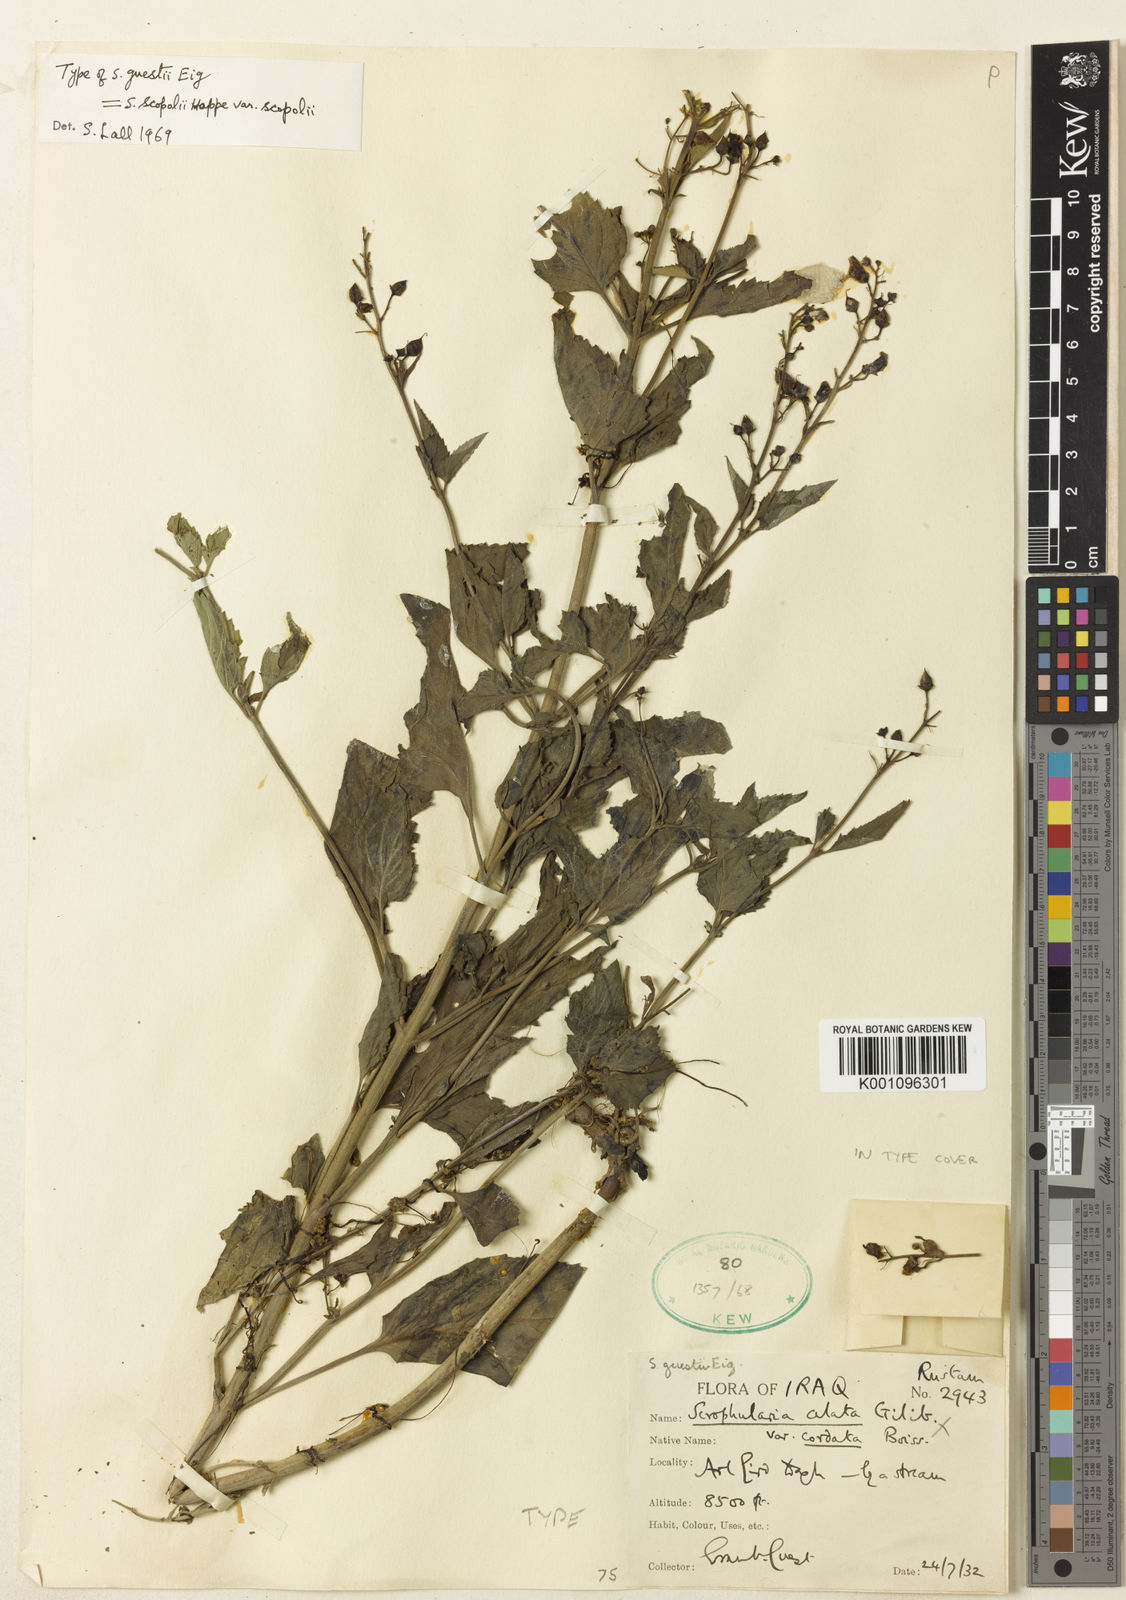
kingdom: Plantae
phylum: Tracheophyta
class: Magnoliopsida
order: Lamiales
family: Scrophulariaceae
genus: Scrophularia
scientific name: Scrophularia scopolii
